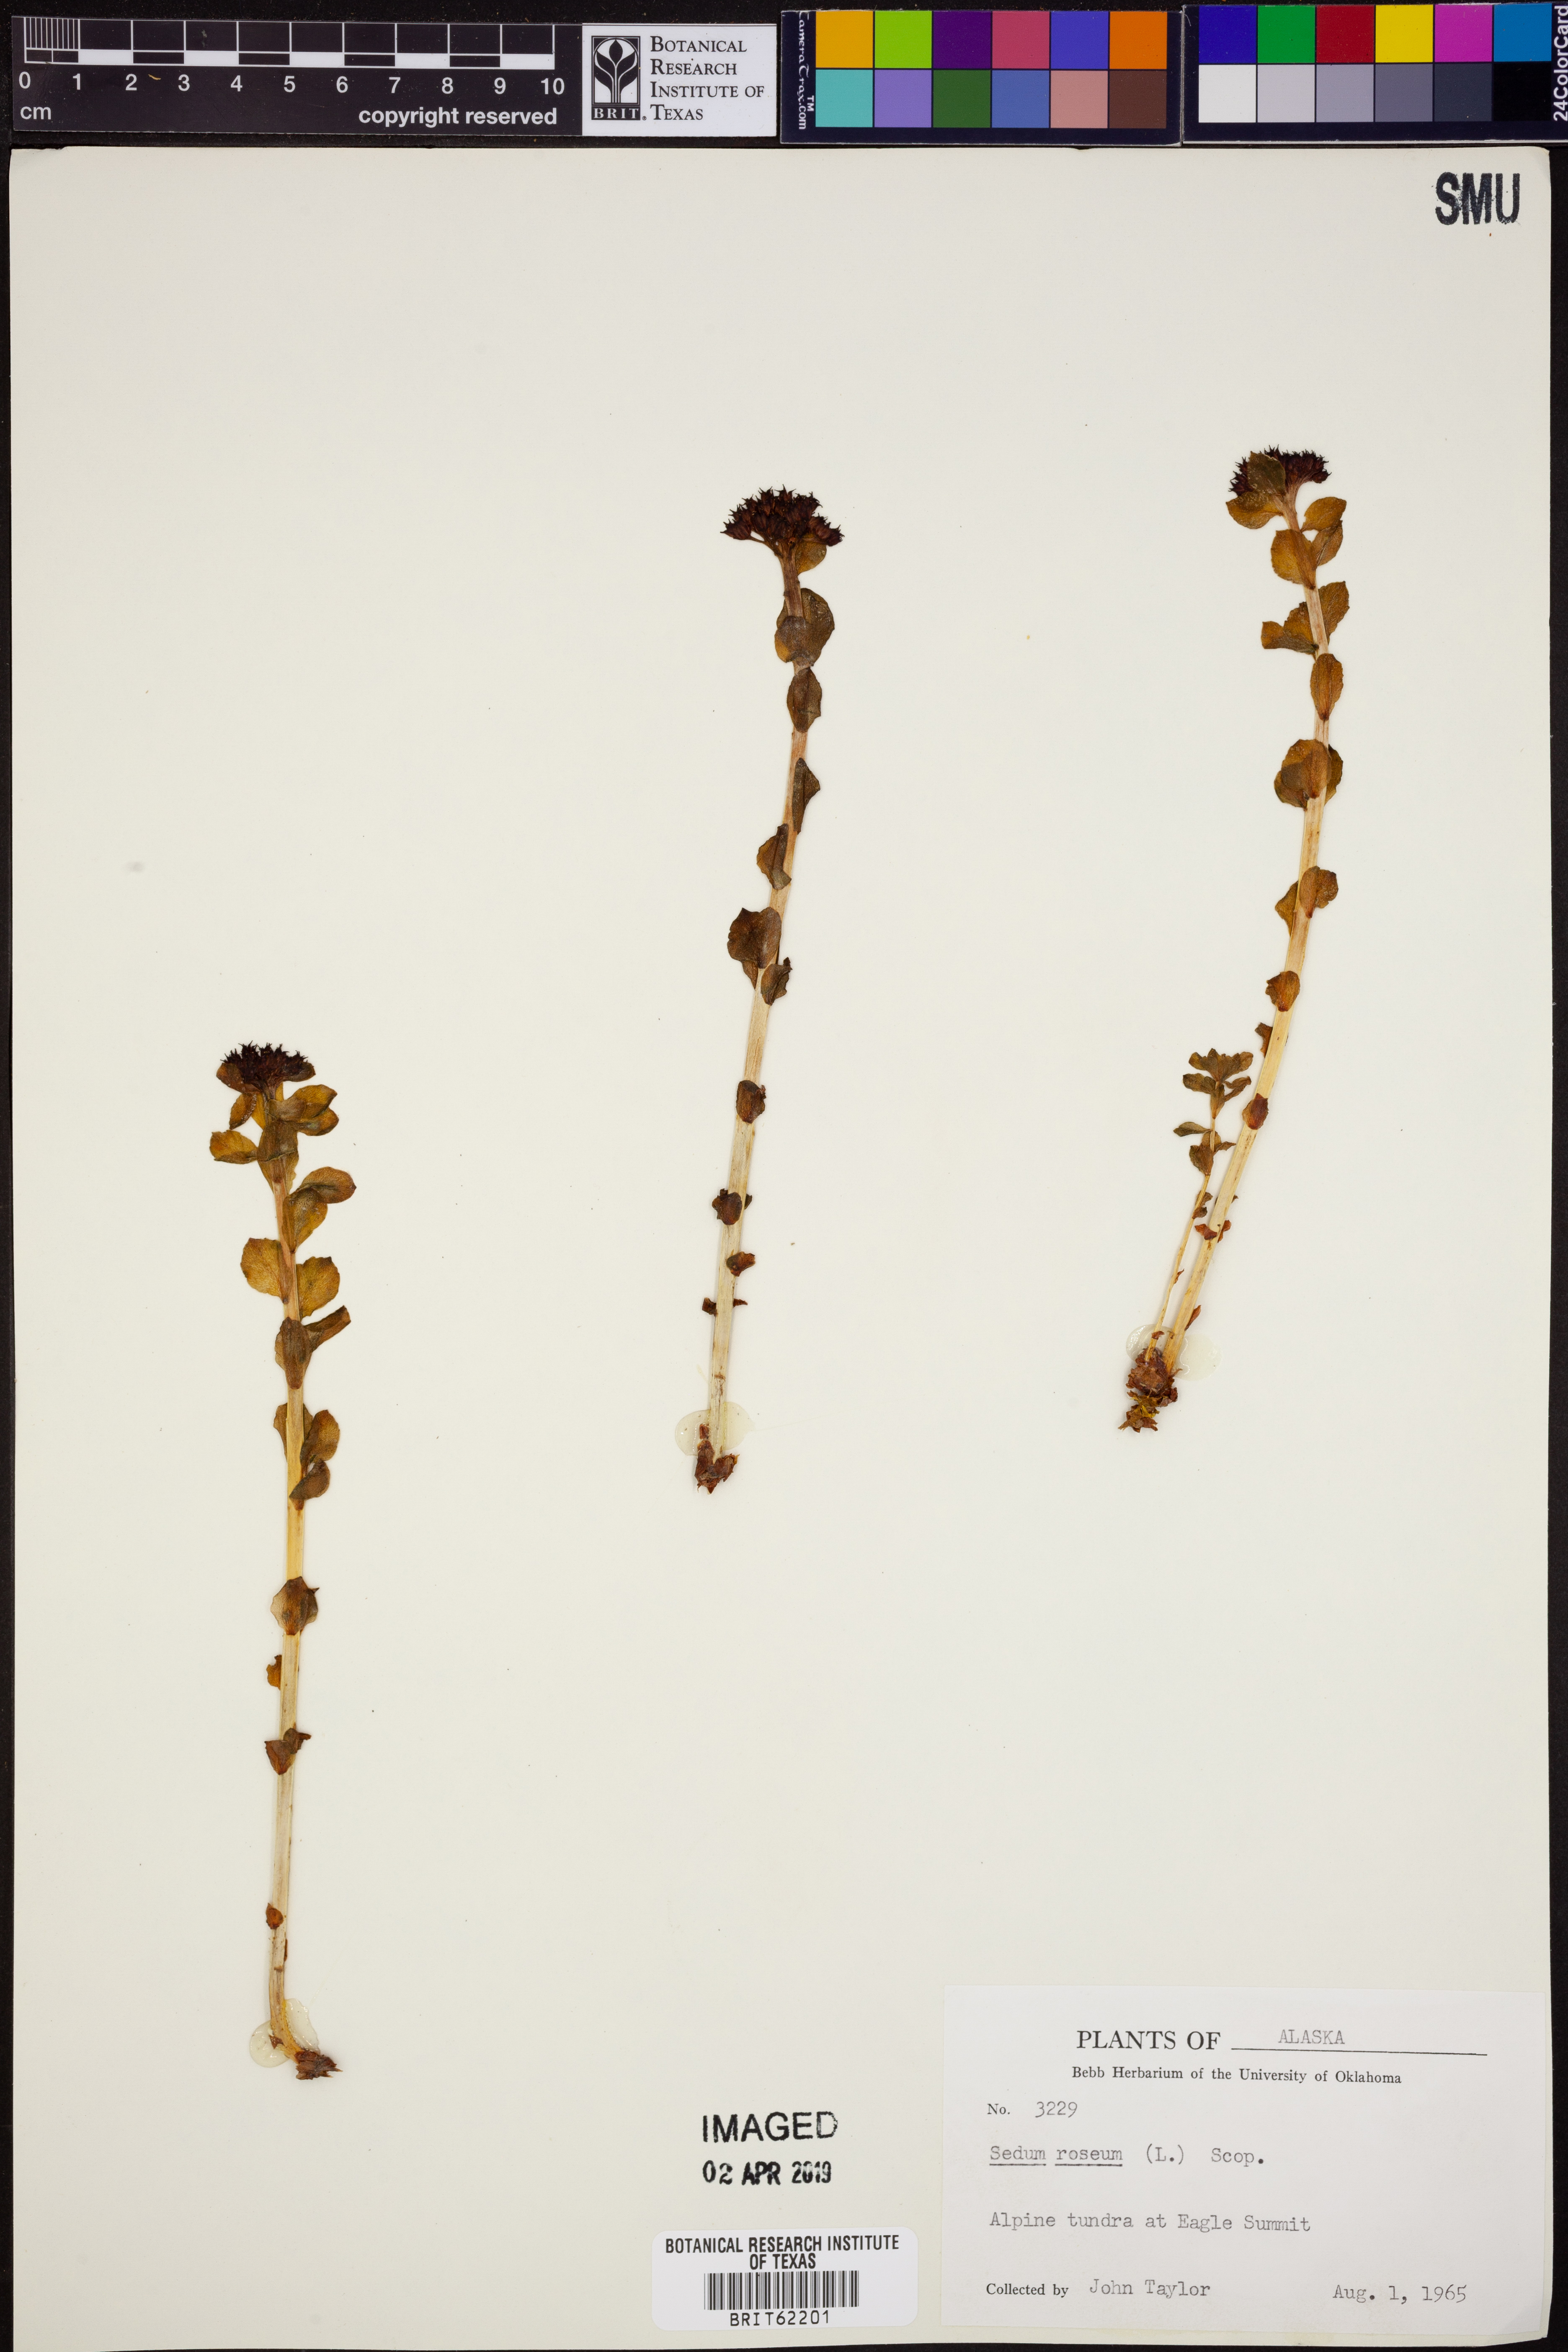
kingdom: Plantae
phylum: Tracheophyta
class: Magnoliopsida
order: Saxifragales
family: Crassulaceae
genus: Rhodiola
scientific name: Rhodiola rosea
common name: Roseroot
